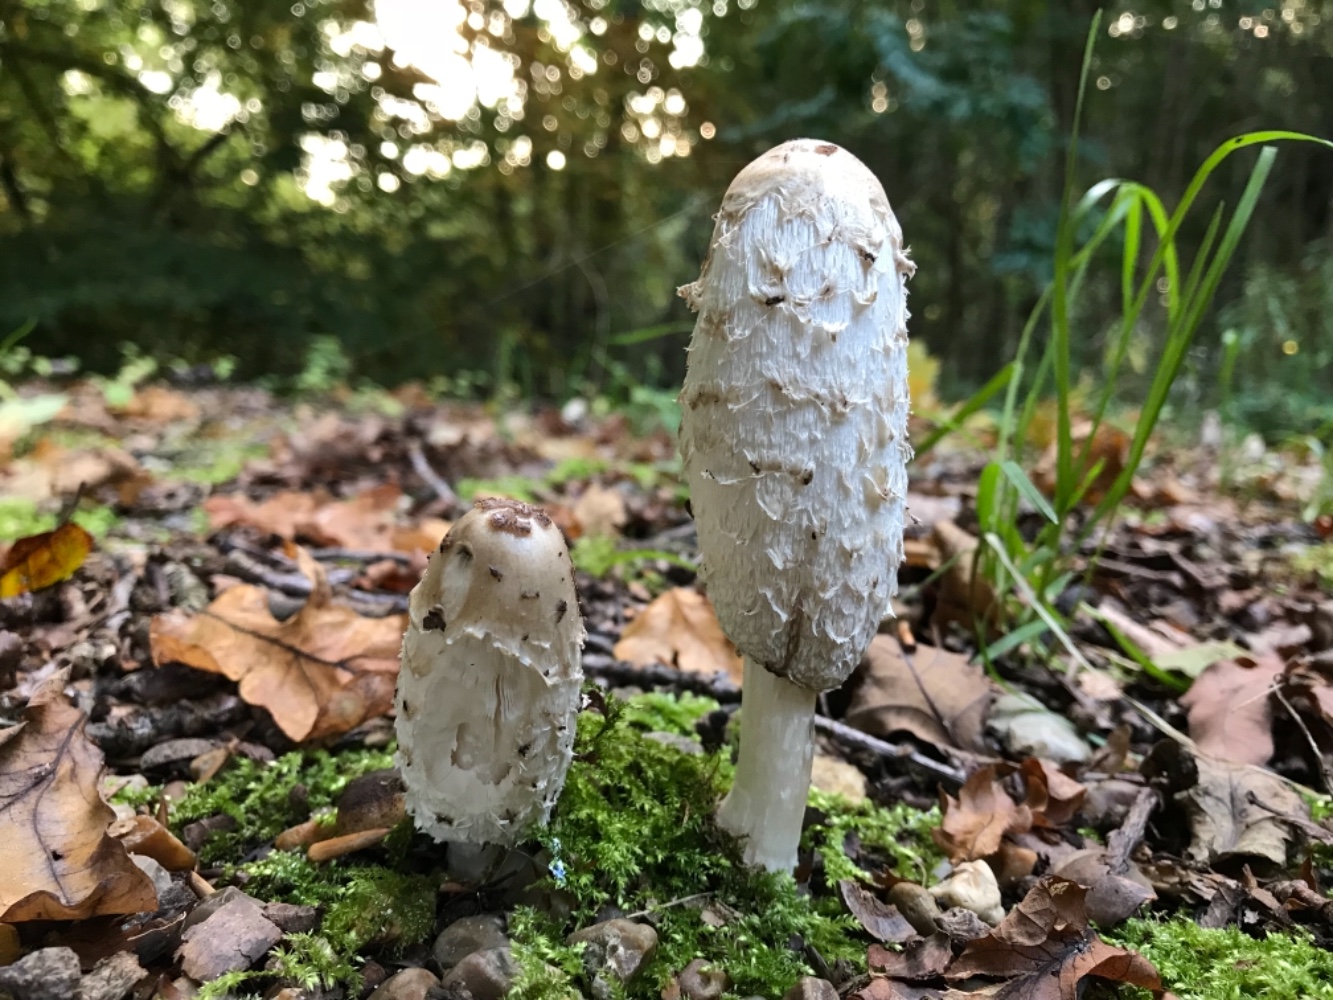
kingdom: Fungi
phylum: Basidiomycota
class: Agaricomycetes
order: Agaricales
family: Agaricaceae
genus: Coprinus
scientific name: Coprinus comatus
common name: stor parykhat
